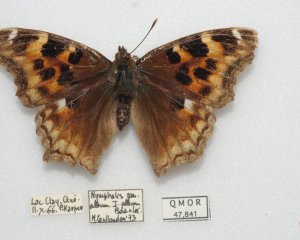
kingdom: Animalia
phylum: Arthropoda
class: Insecta
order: Lepidoptera
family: Nymphalidae
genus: Polygonia
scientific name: Polygonia vaualbum
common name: Compton Tortoiseshell
